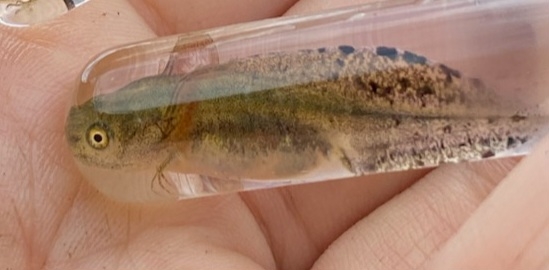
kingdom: Animalia
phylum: Chordata
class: Amphibia
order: Caudata
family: Salamandridae
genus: Triturus
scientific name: Triturus cristatus
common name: Stor vandsalamander
